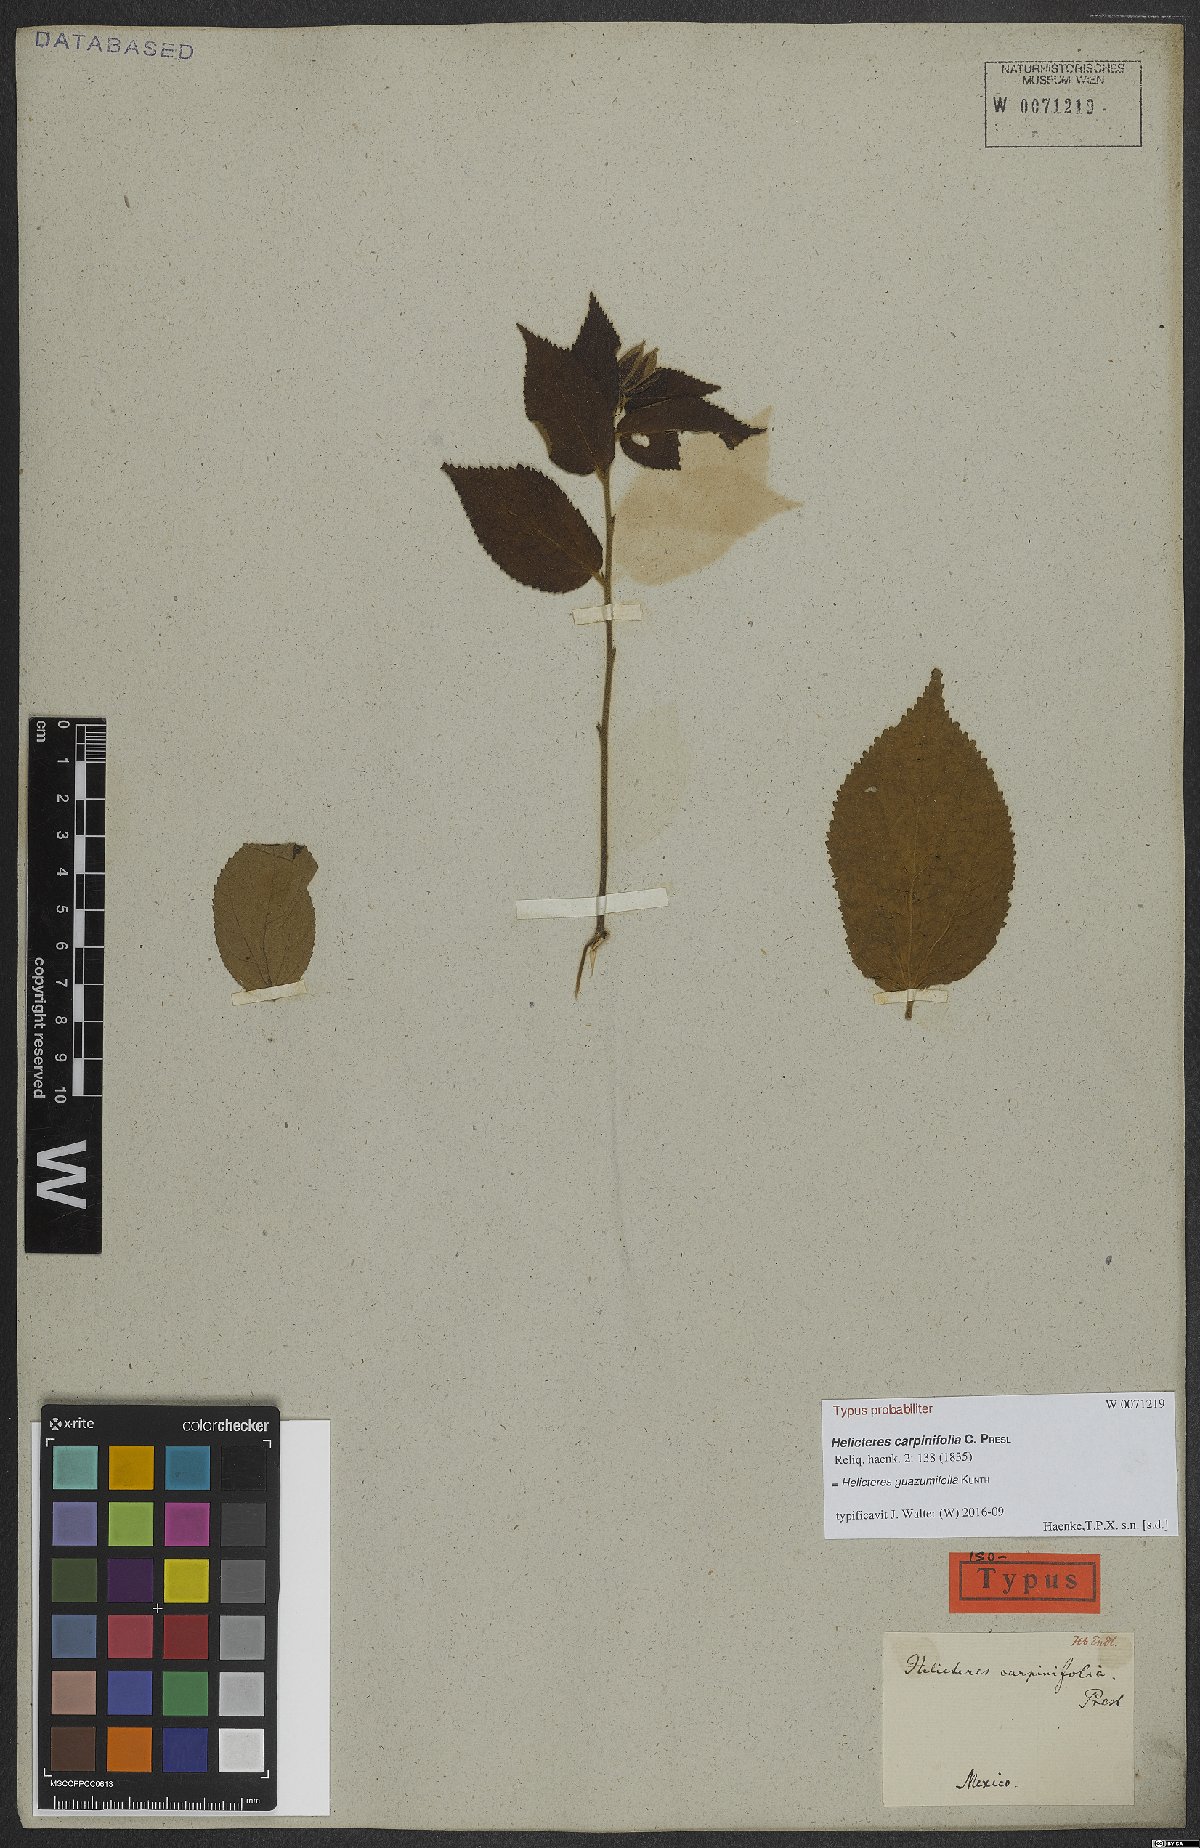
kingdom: Plantae
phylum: Tracheophyta
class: Magnoliopsida
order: Malvales
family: Malvaceae
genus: Helicteres
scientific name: Helicteres guazumifolia
